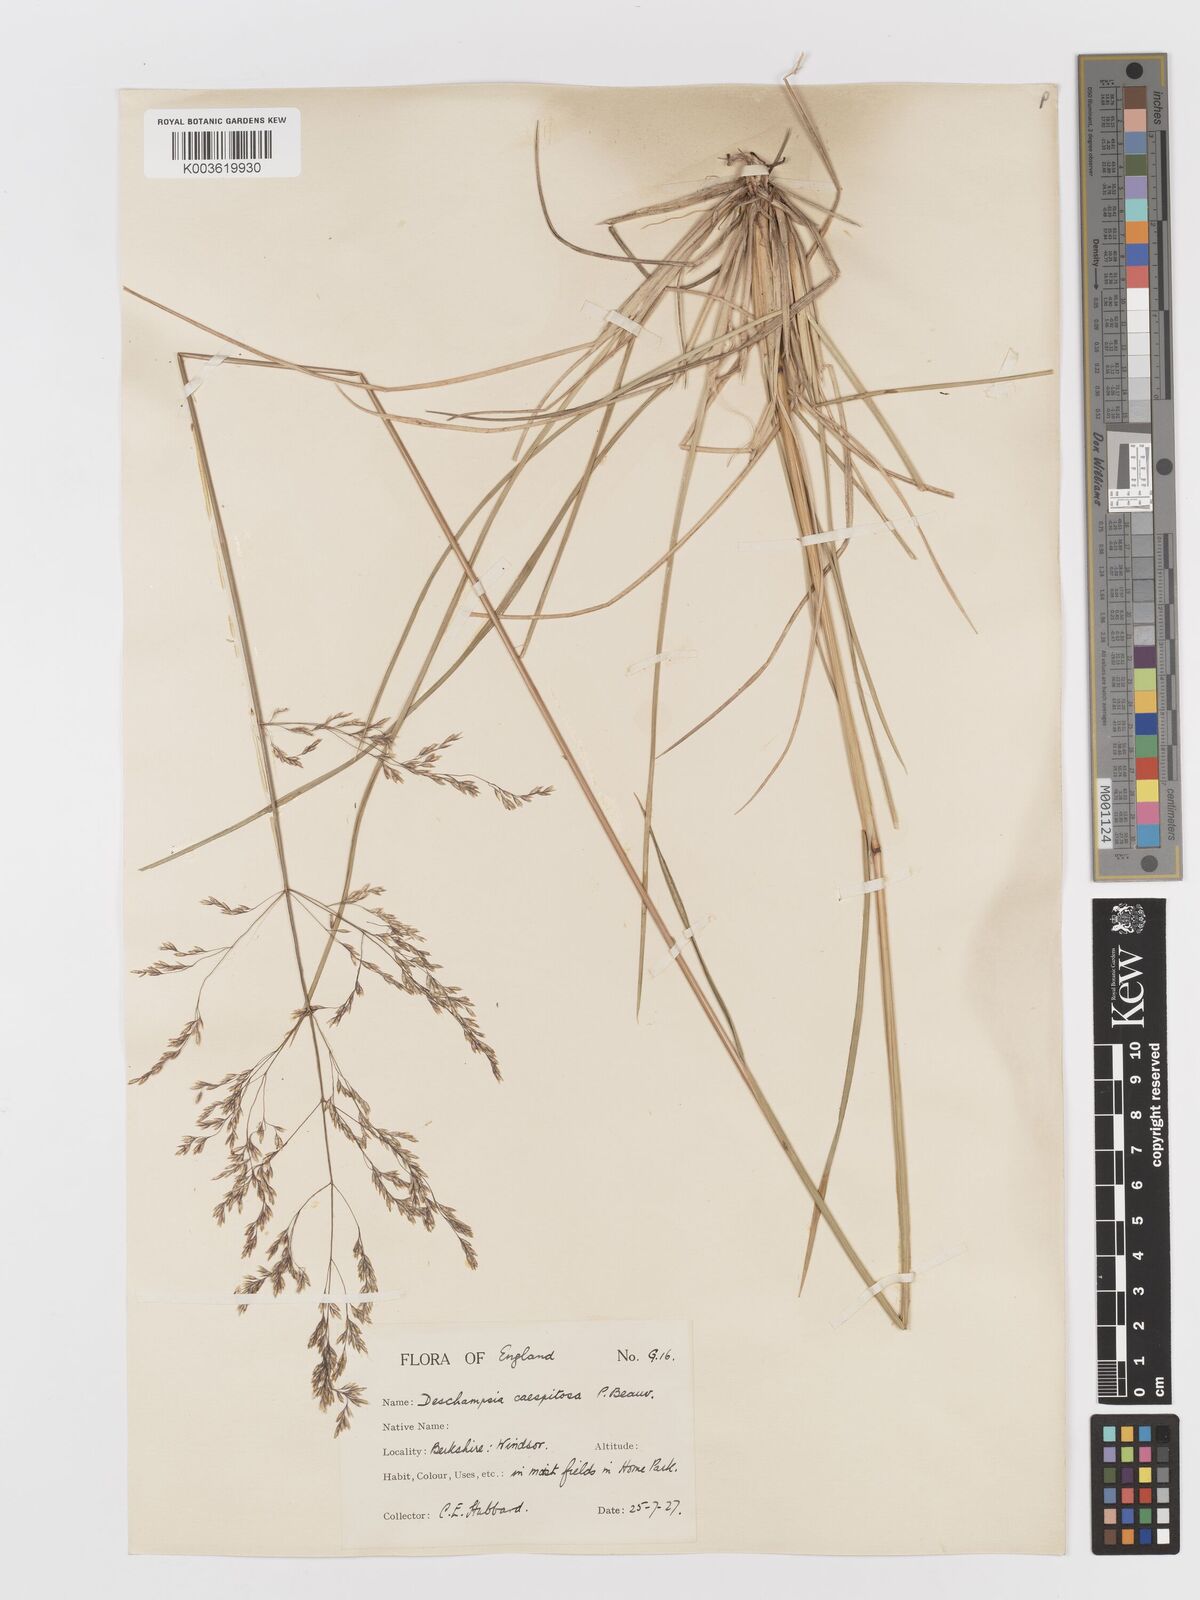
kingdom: Plantae
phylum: Tracheophyta
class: Liliopsida
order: Poales
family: Poaceae
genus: Deschampsia
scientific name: Deschampsia
